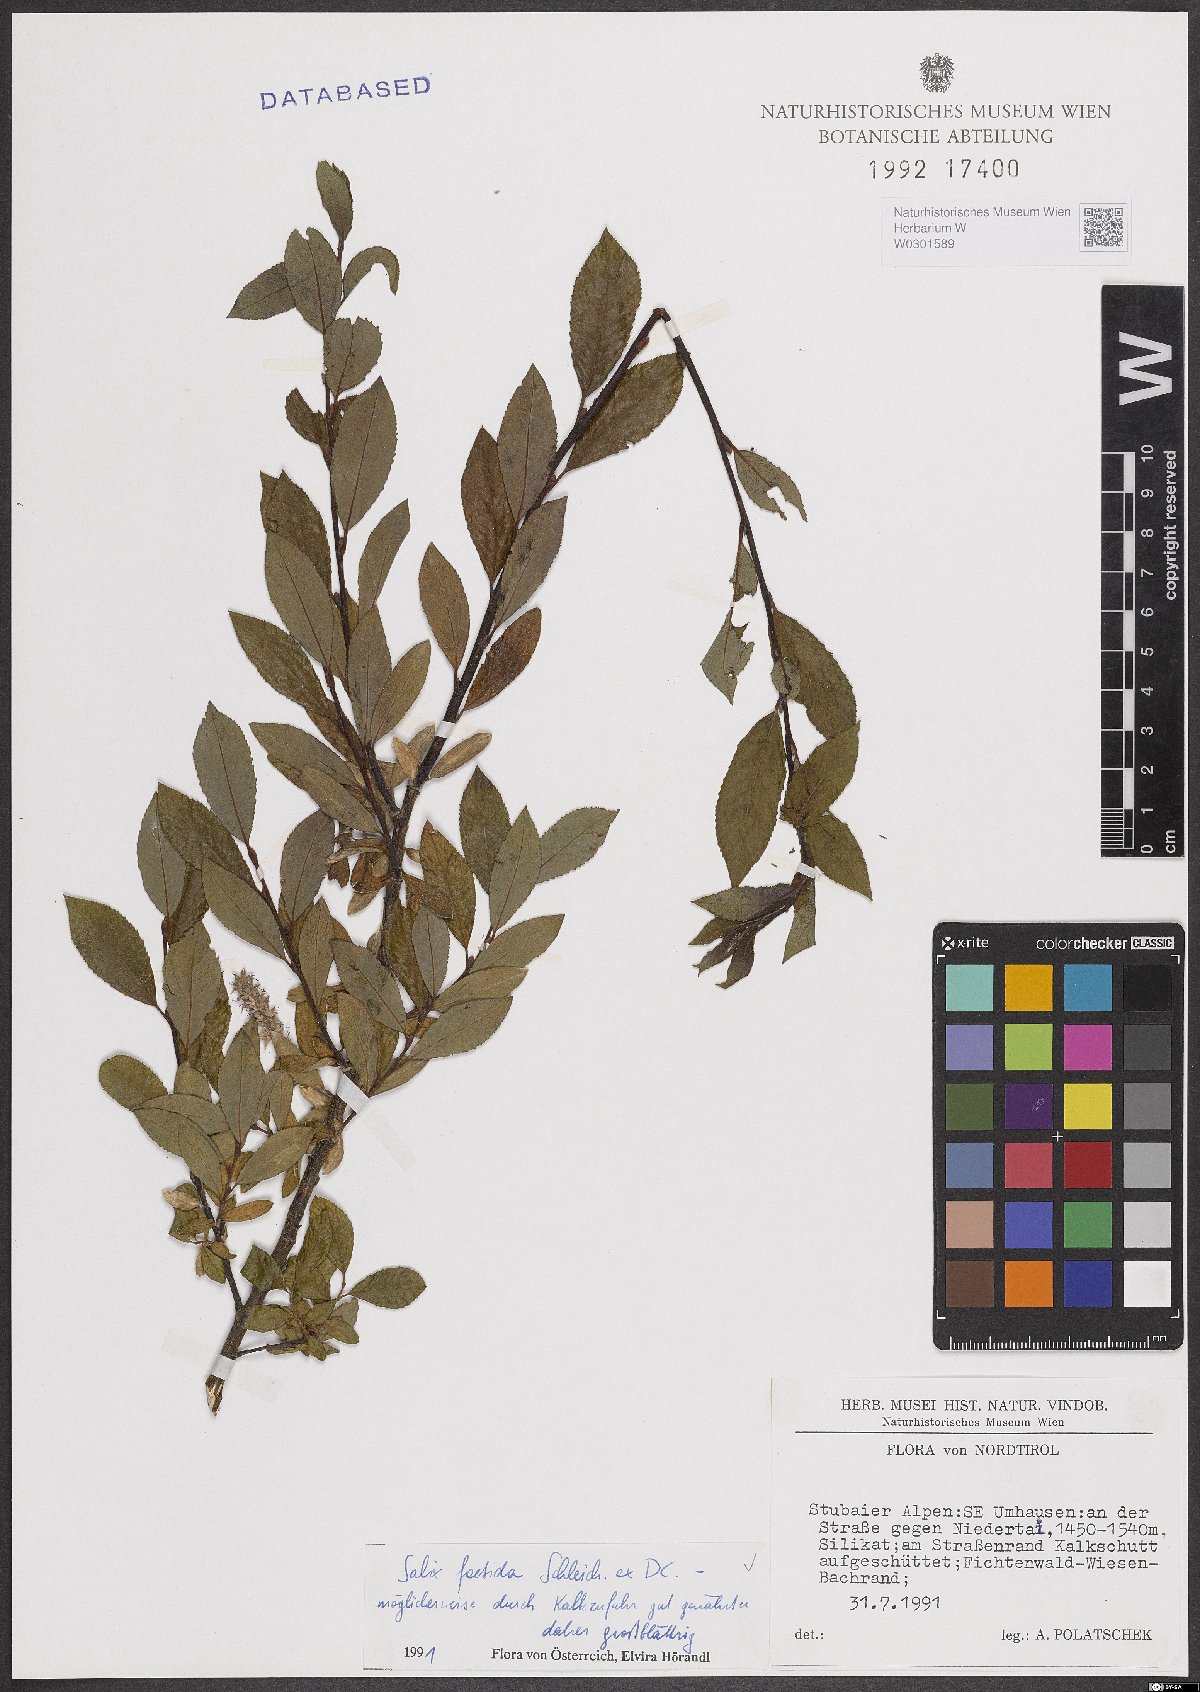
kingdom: Plantae
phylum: Tracheophyta
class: Magnoliopsida
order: Malpighiales
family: Salicaceae
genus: Salix
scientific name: Salix foetida
